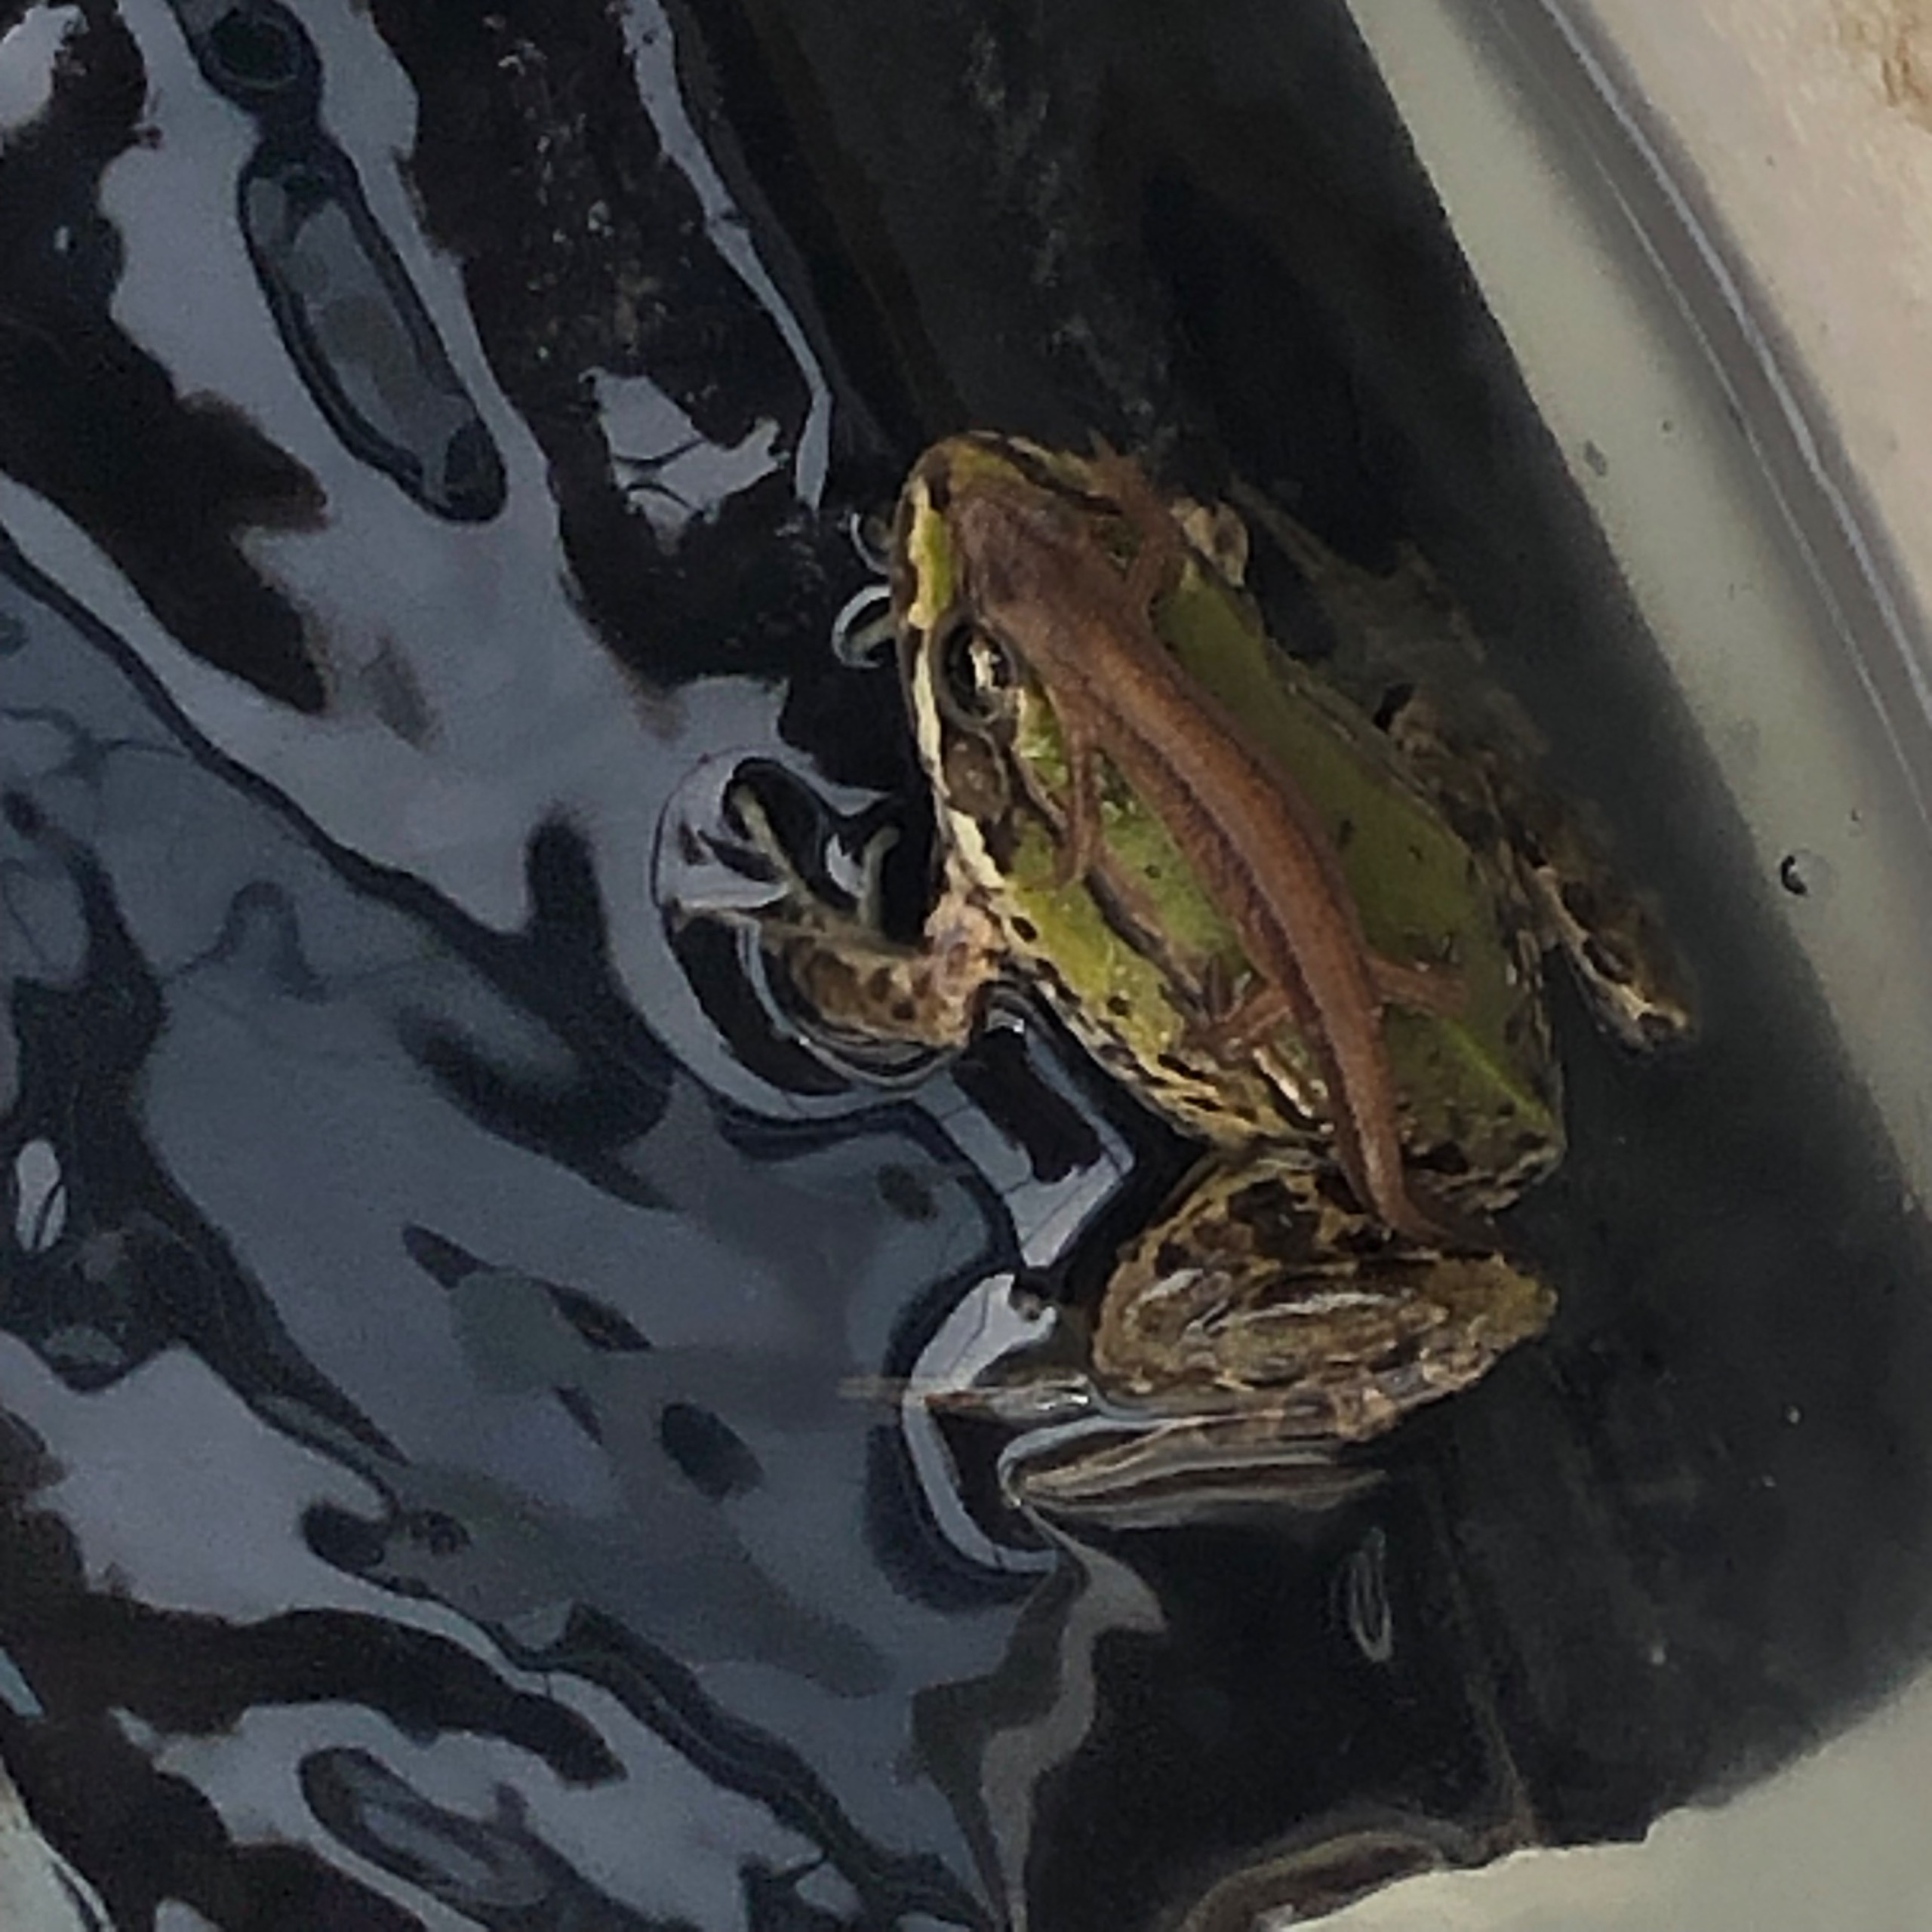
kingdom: Animalia
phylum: Chordata
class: Amphibia
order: Anura
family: Ranidae
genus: Pelophylax
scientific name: Pelophylax lessonae
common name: Grøn frø
